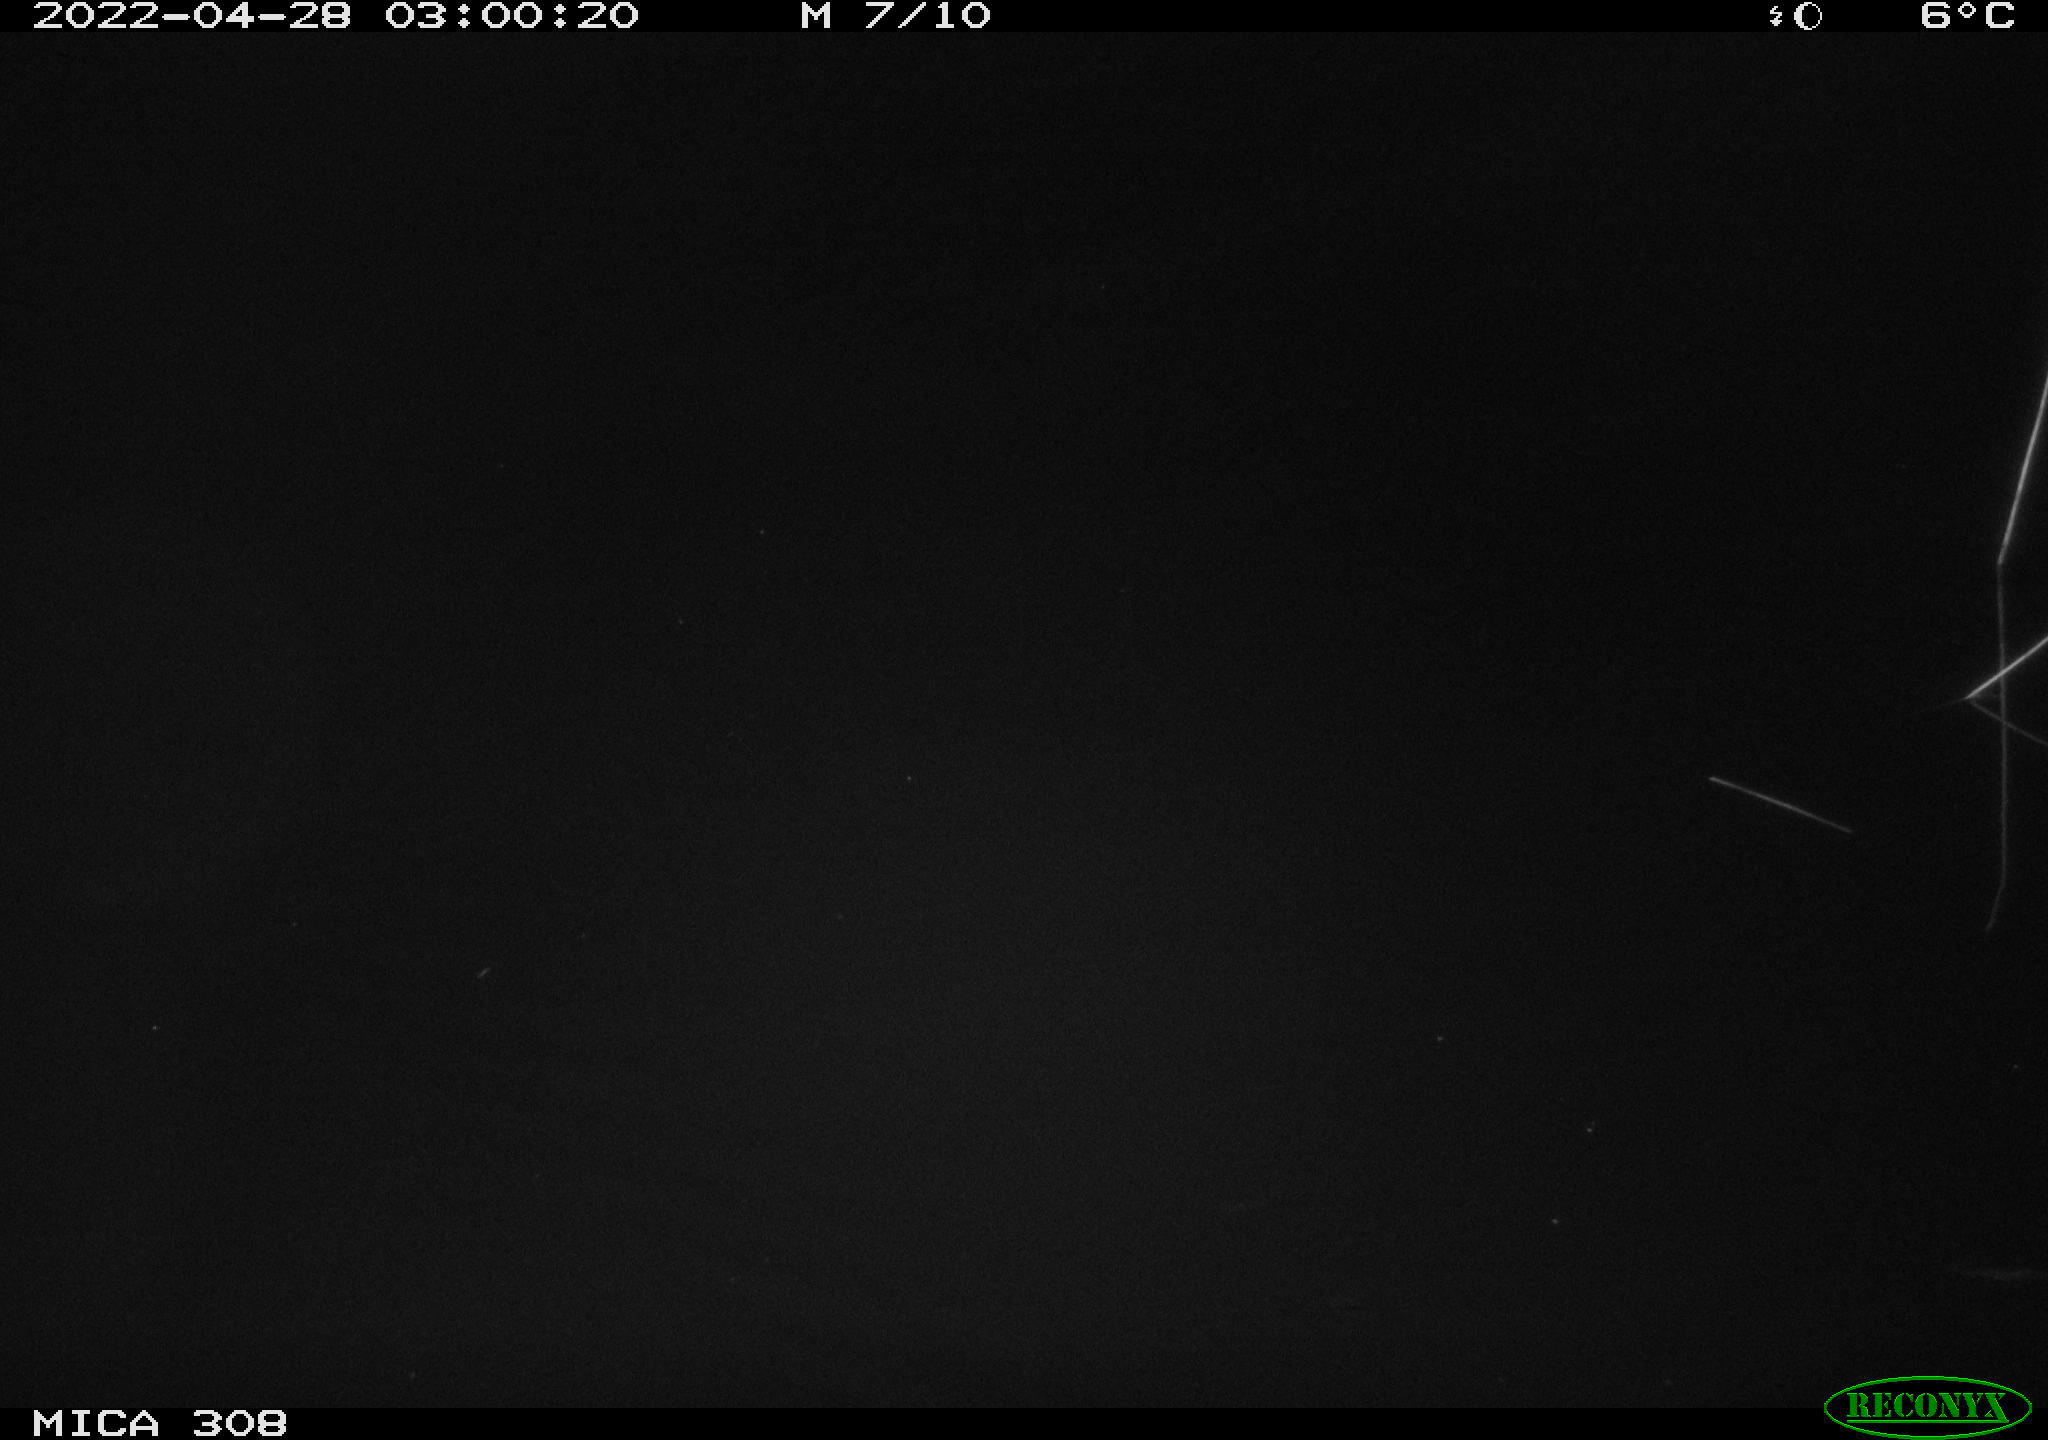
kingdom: Animalia
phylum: Chordata
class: Aves
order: Anseriformes
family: Anatidae
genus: Anas
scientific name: Anas platyrhynchos
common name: Mallard
